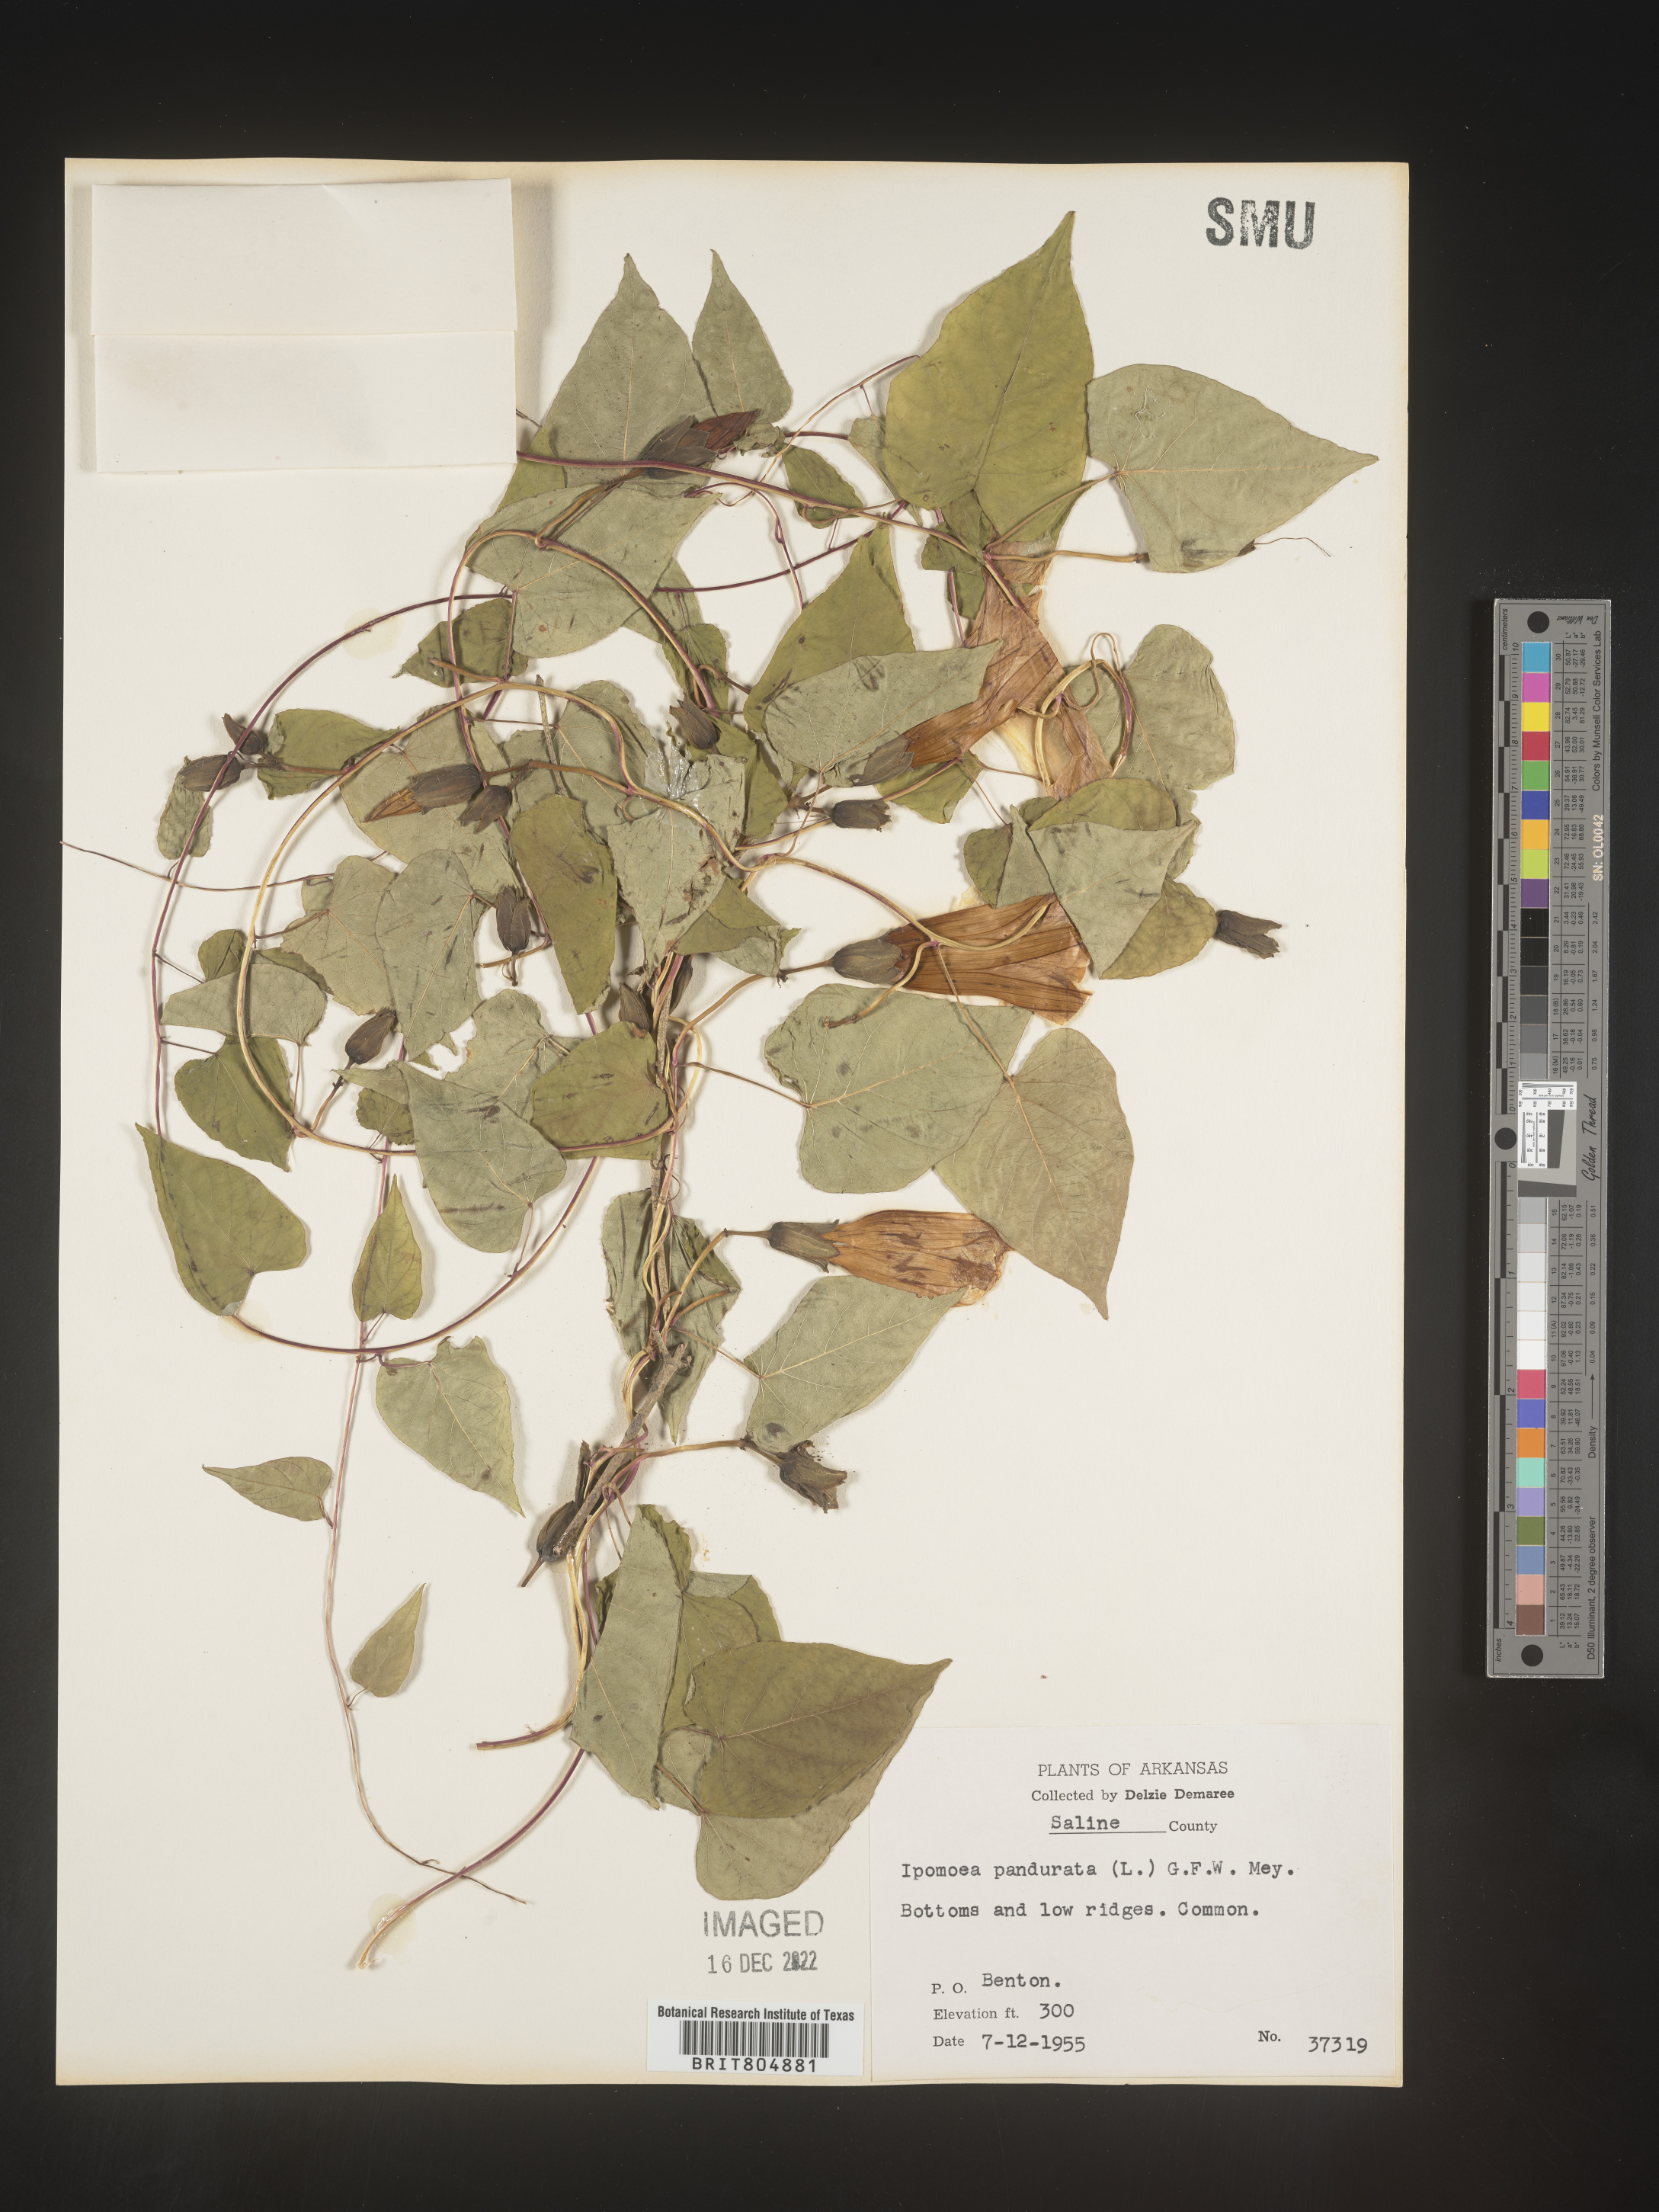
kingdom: Plantae
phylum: Tracheophyta
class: Magnoliopsida
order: Solanales
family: Convolvulaceae
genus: Ipomoea
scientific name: Ipomoea pandurata
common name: Man-of-the-earth
